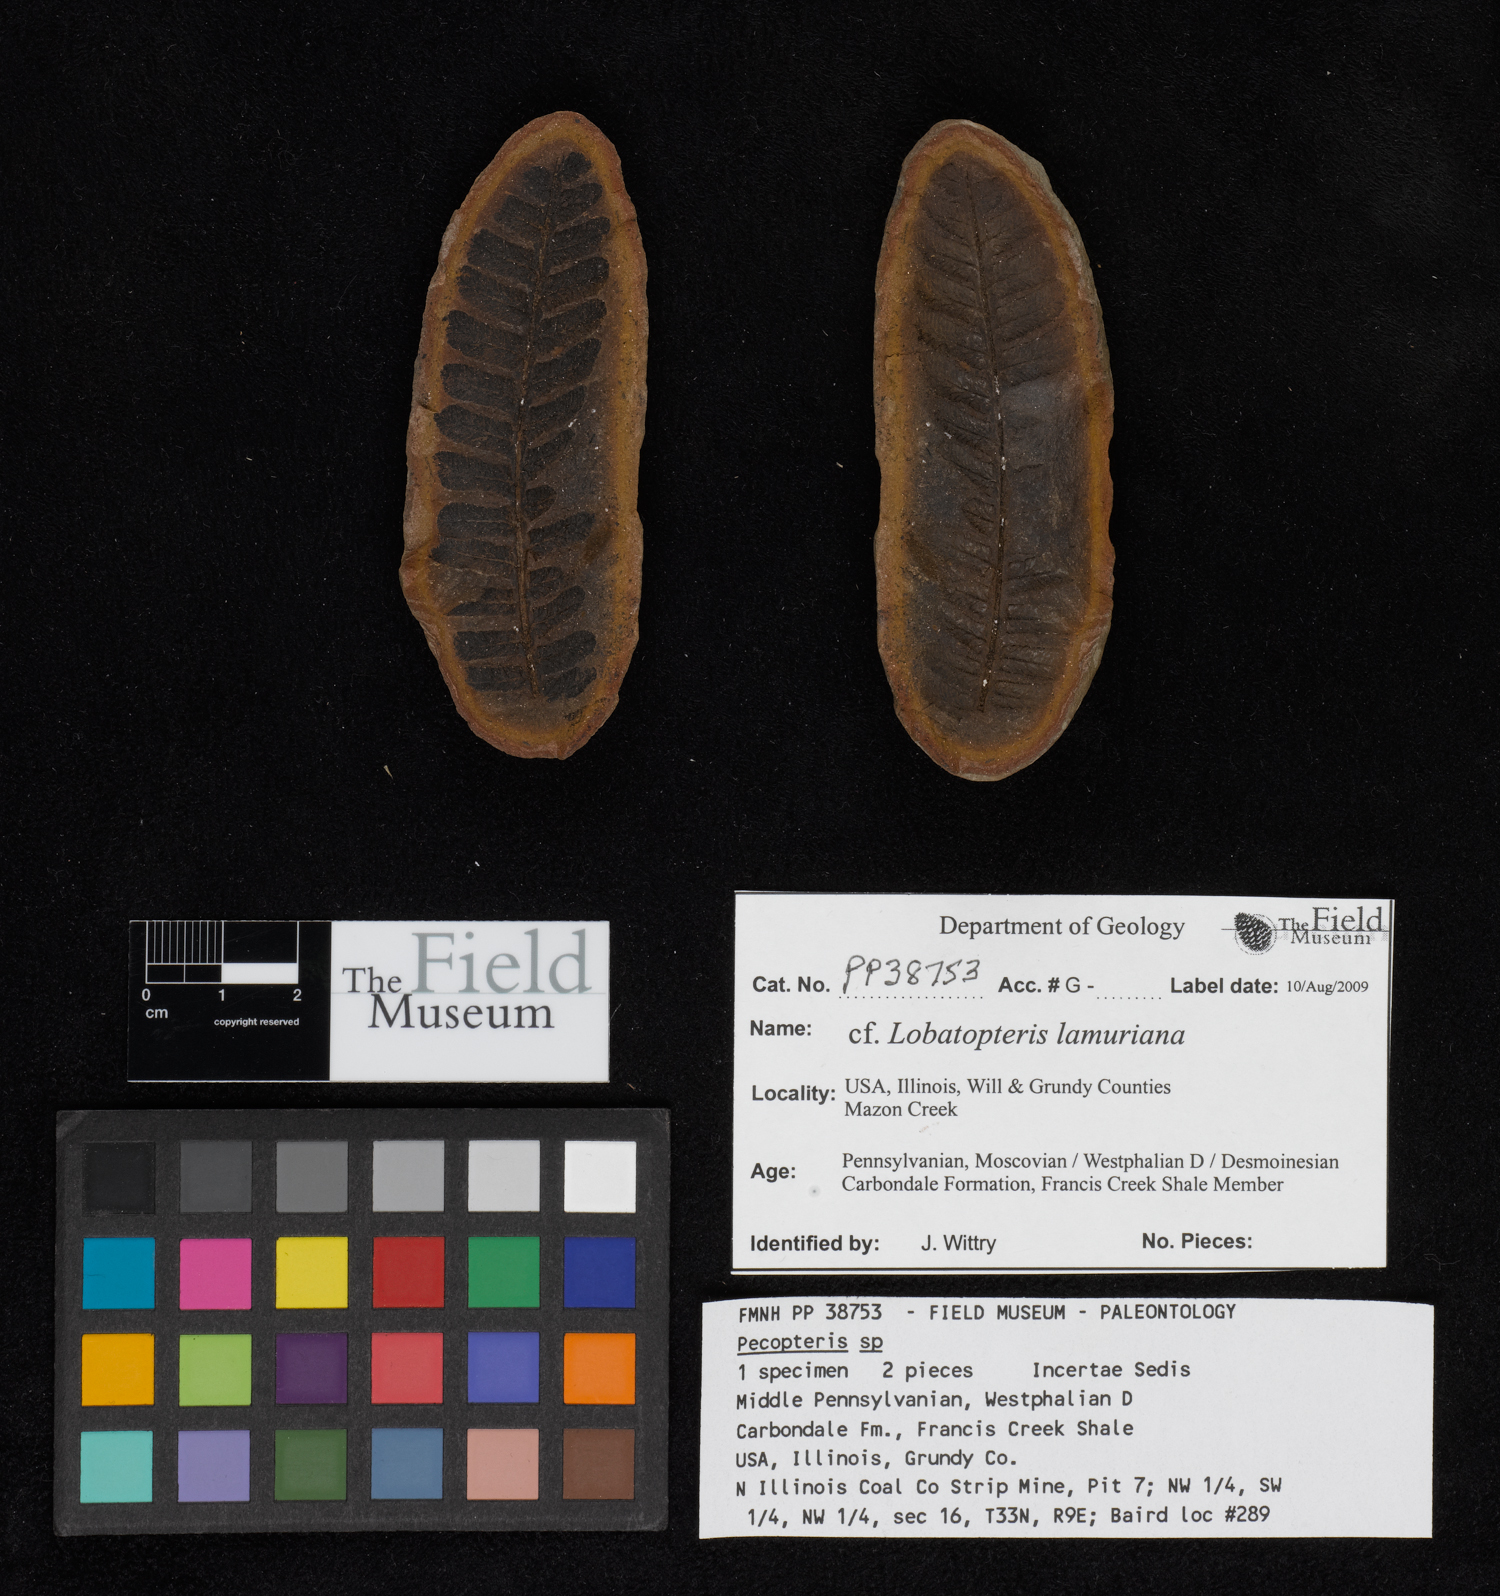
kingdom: Plantae
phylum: Tracheophyta
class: Polypodiopsida
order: Marattiales
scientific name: Marattiales
